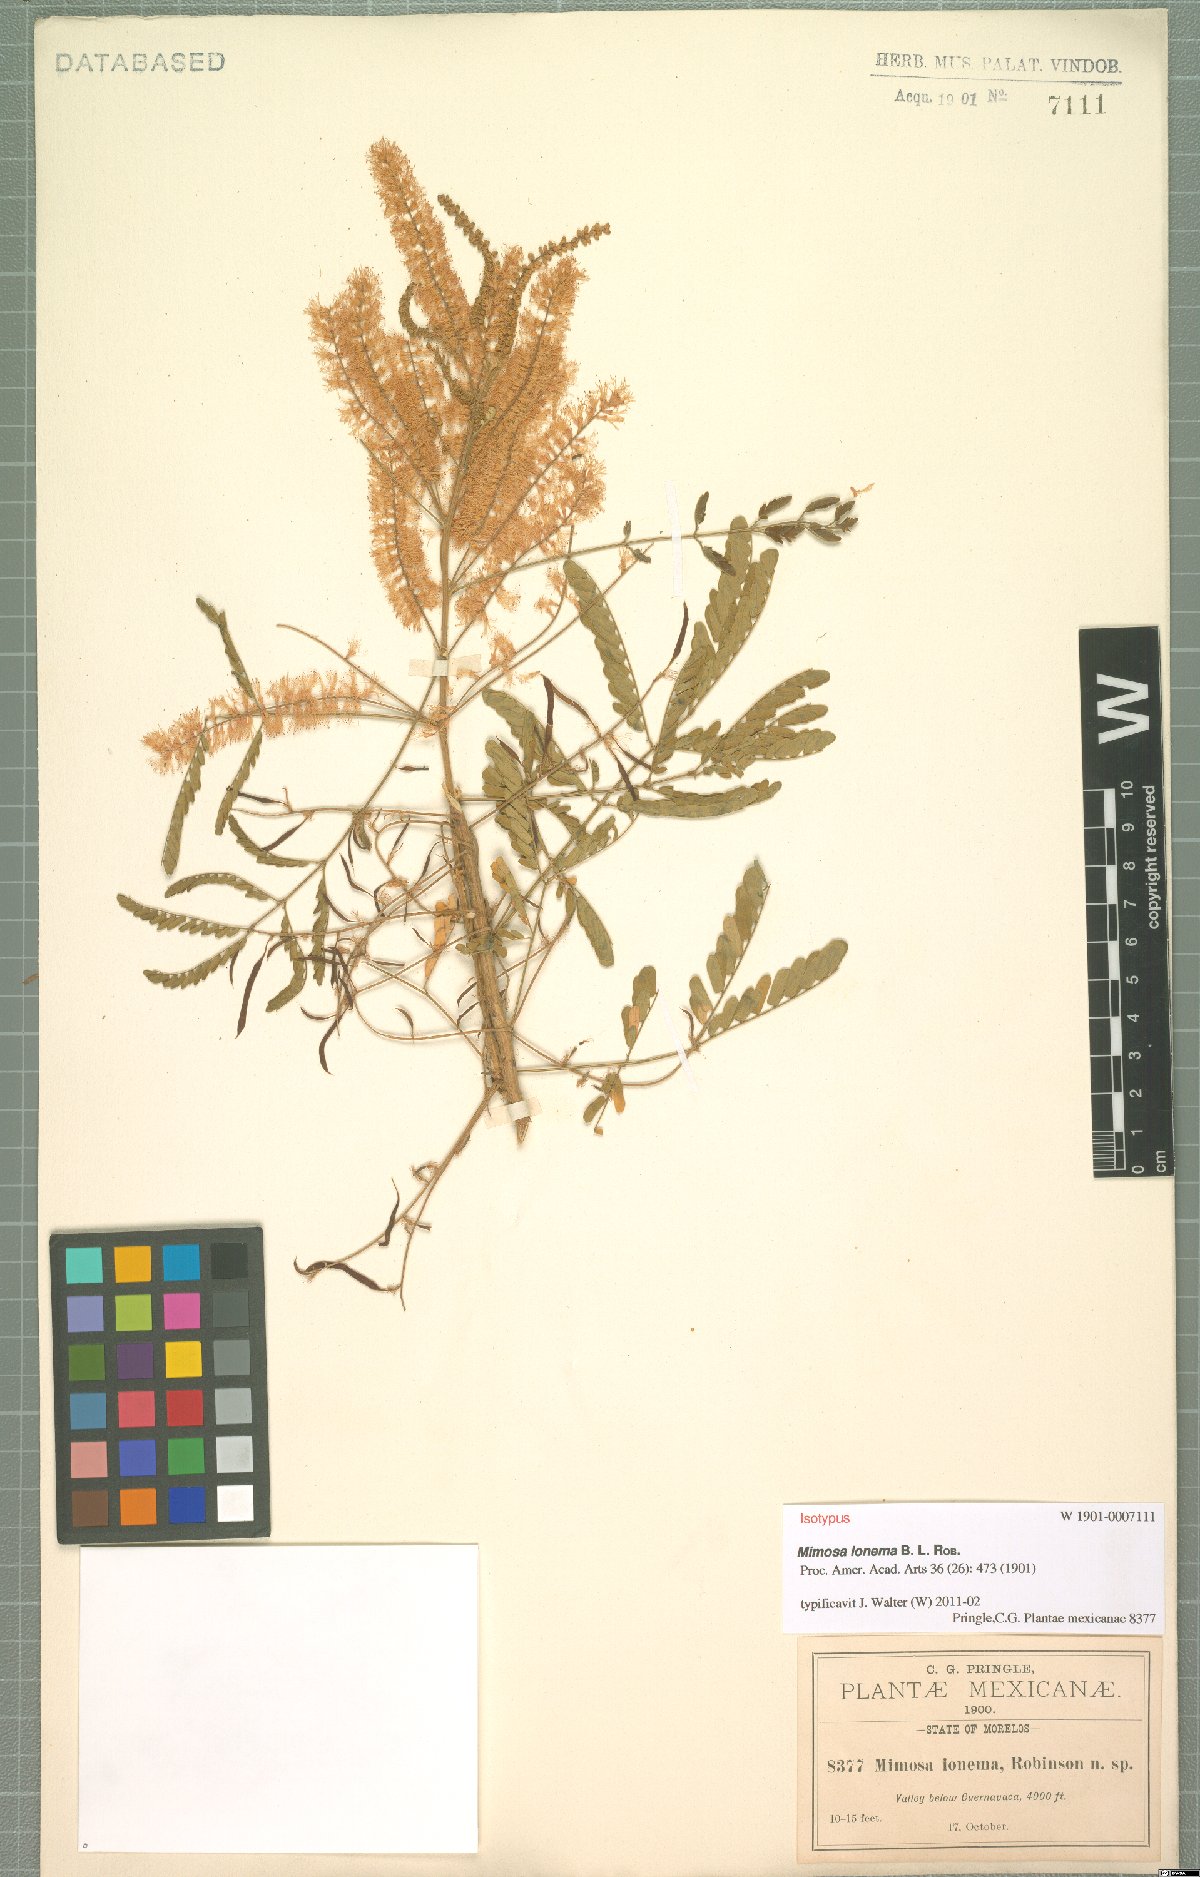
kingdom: Plantae
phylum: Tracheophyta
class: Magnoliopsida
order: Fabales
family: Fabaceae
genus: Mimosa
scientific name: Mimosa polyantha
